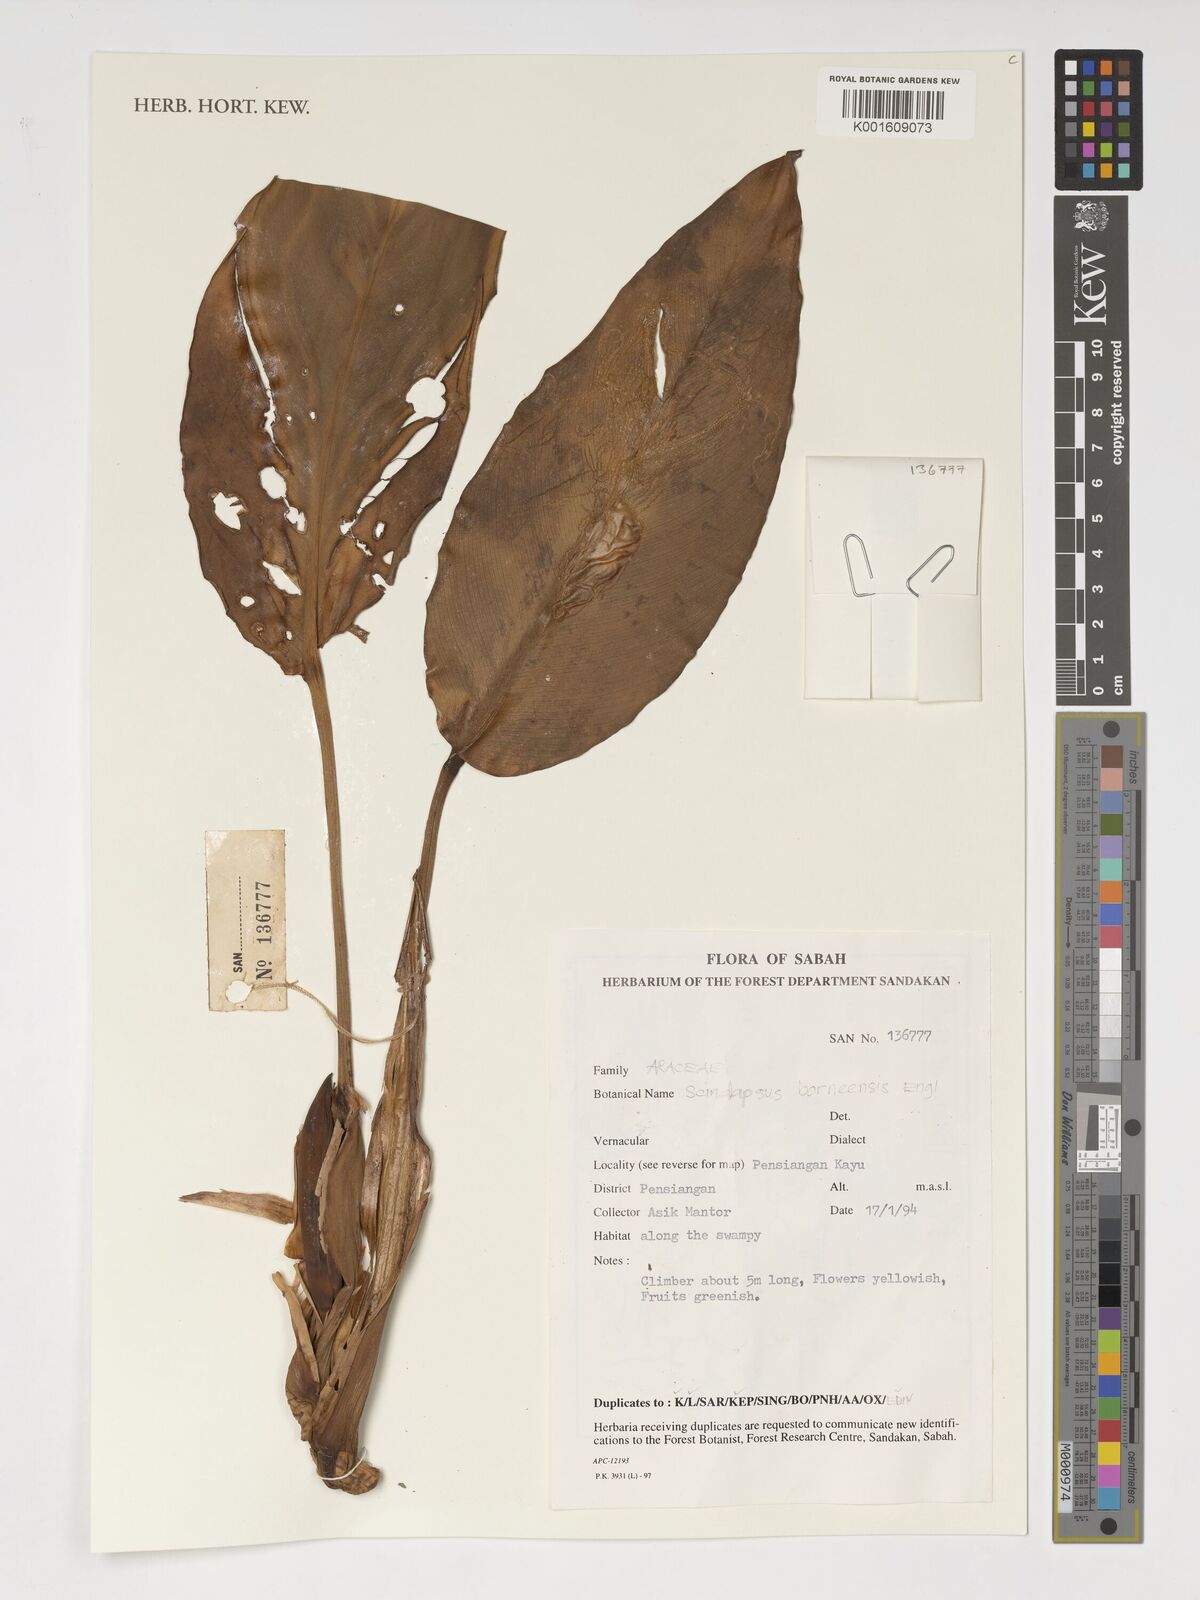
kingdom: Plantae
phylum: Tracheophyta
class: Liliopsida
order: Alismatales
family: Araceae
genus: Scindapsus
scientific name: Scindapsus coriaceus
